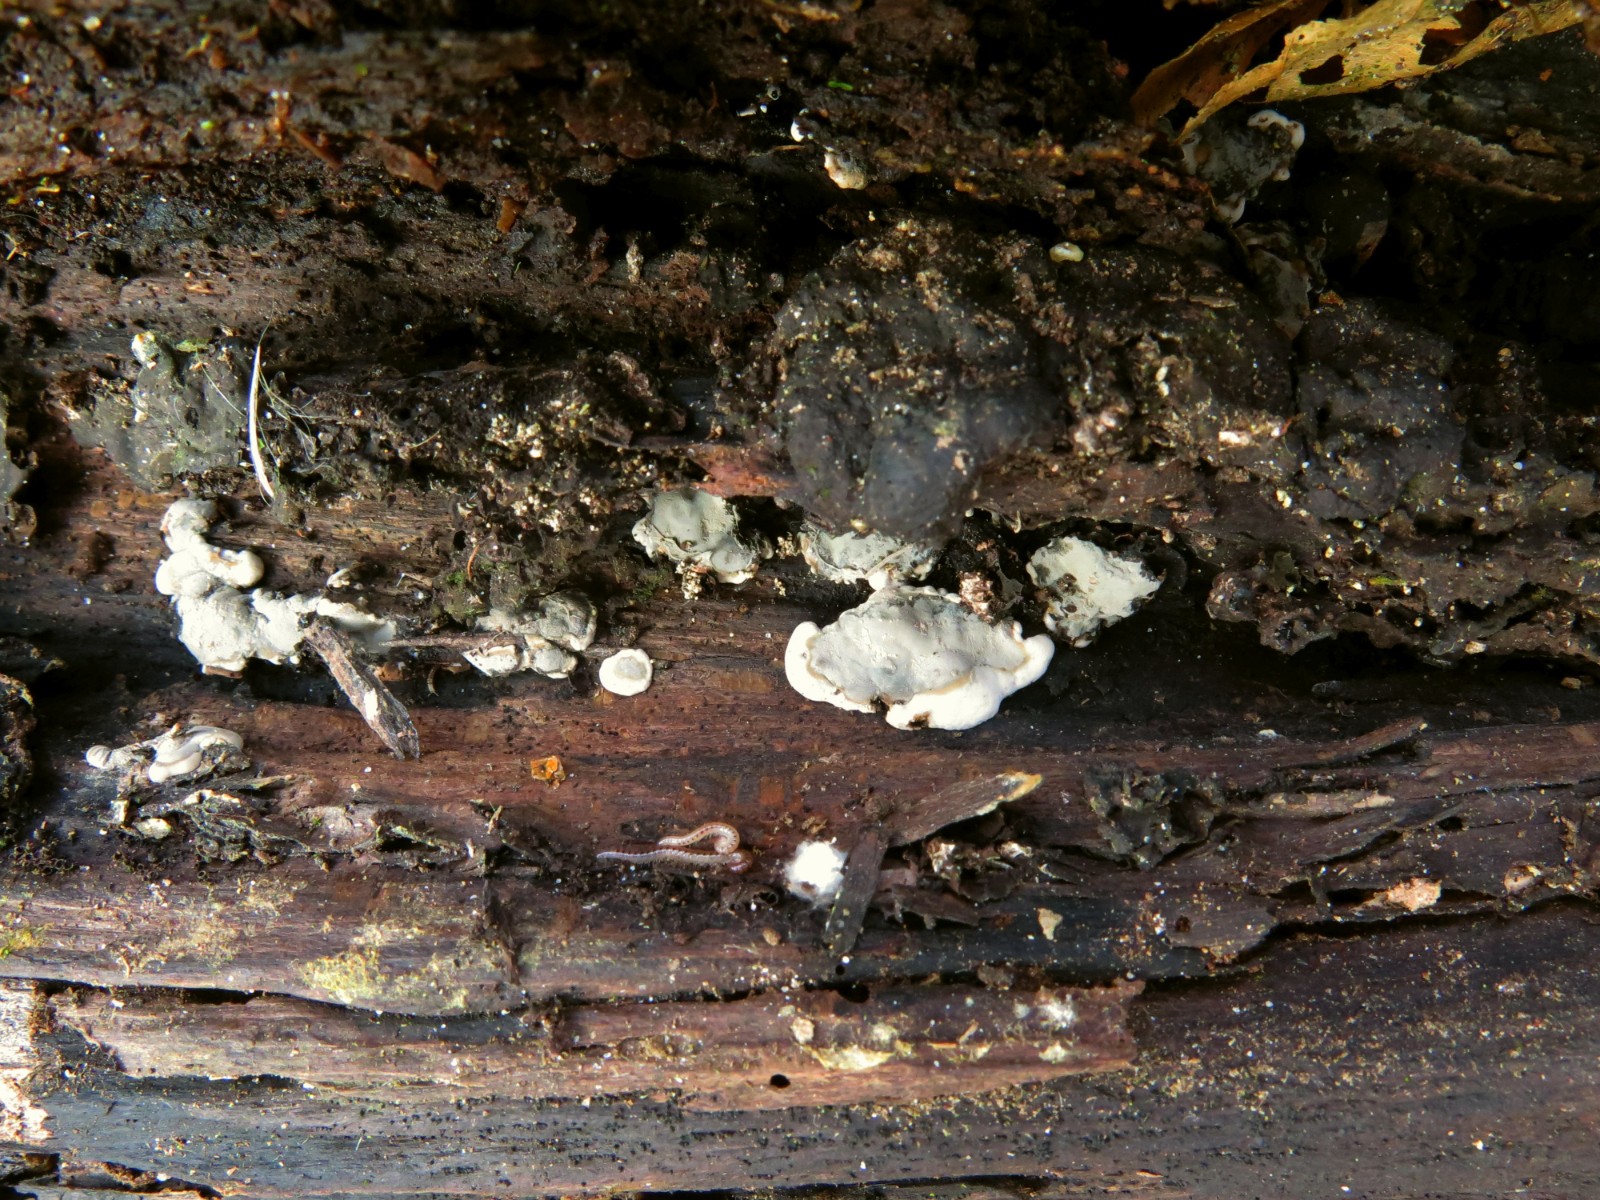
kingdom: Fungi
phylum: Ascomycota
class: Sordariomycetes
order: Xylariales
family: Xylariaceae
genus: Kretzschmaria
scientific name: Kretzschmaria deusta
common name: stor kulsvamp
